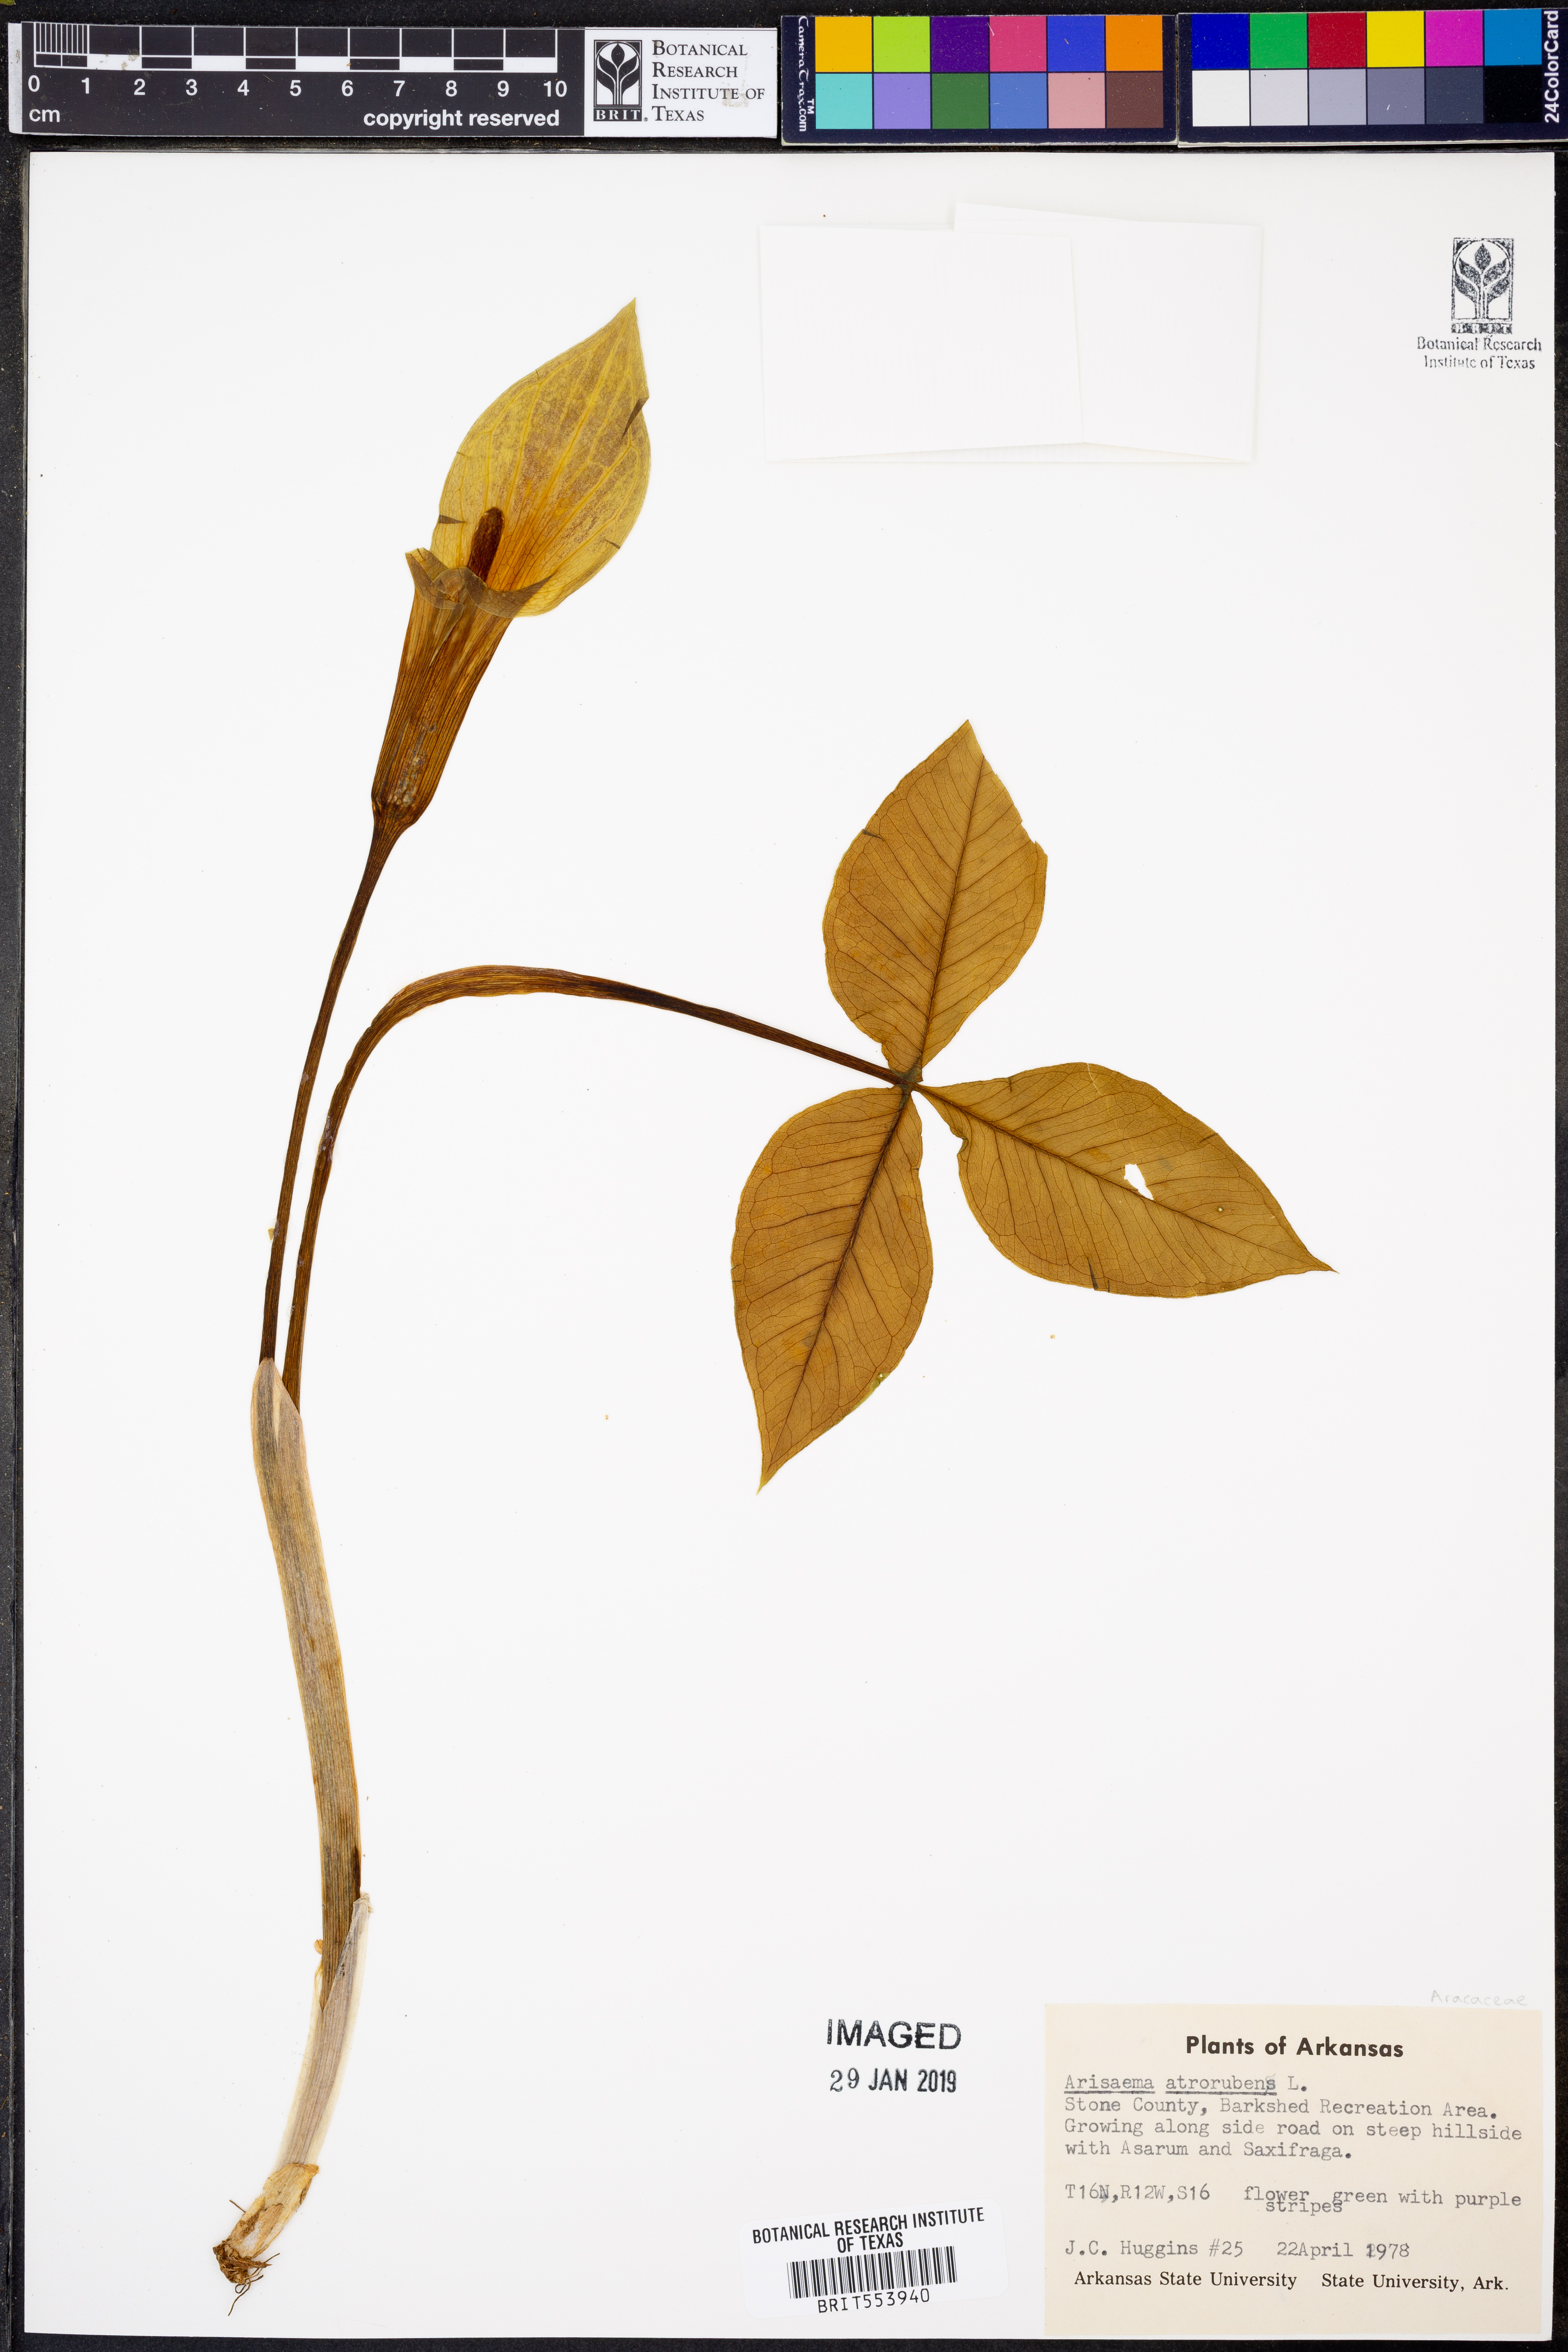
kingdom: Plantae
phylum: Tracheophyta
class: Liliopsida
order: Alismatales
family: Araceae
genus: Arisaema
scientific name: Arisaema triphyllum
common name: Jack-in-the-pulpit
